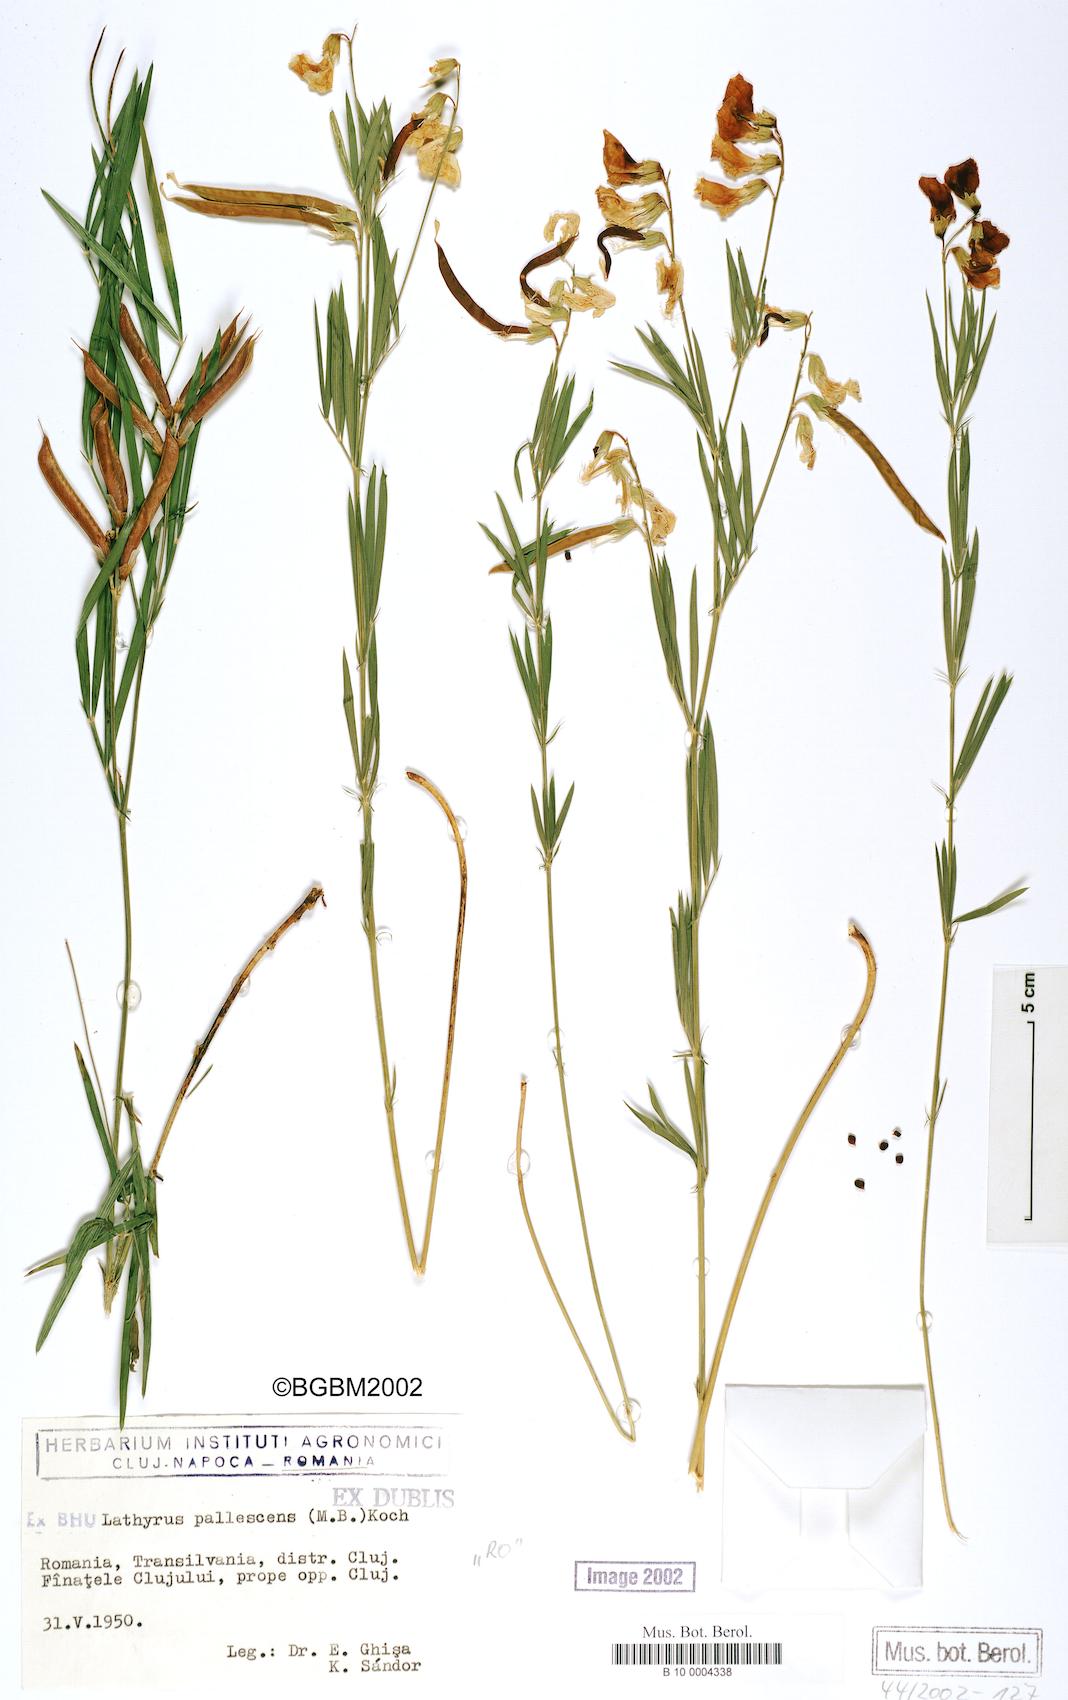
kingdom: Plantae
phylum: Tracheophyta
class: Magnoliopsida
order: Fabales
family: Fabaceae
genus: Lathyrus
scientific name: Lathyrus pallescens
